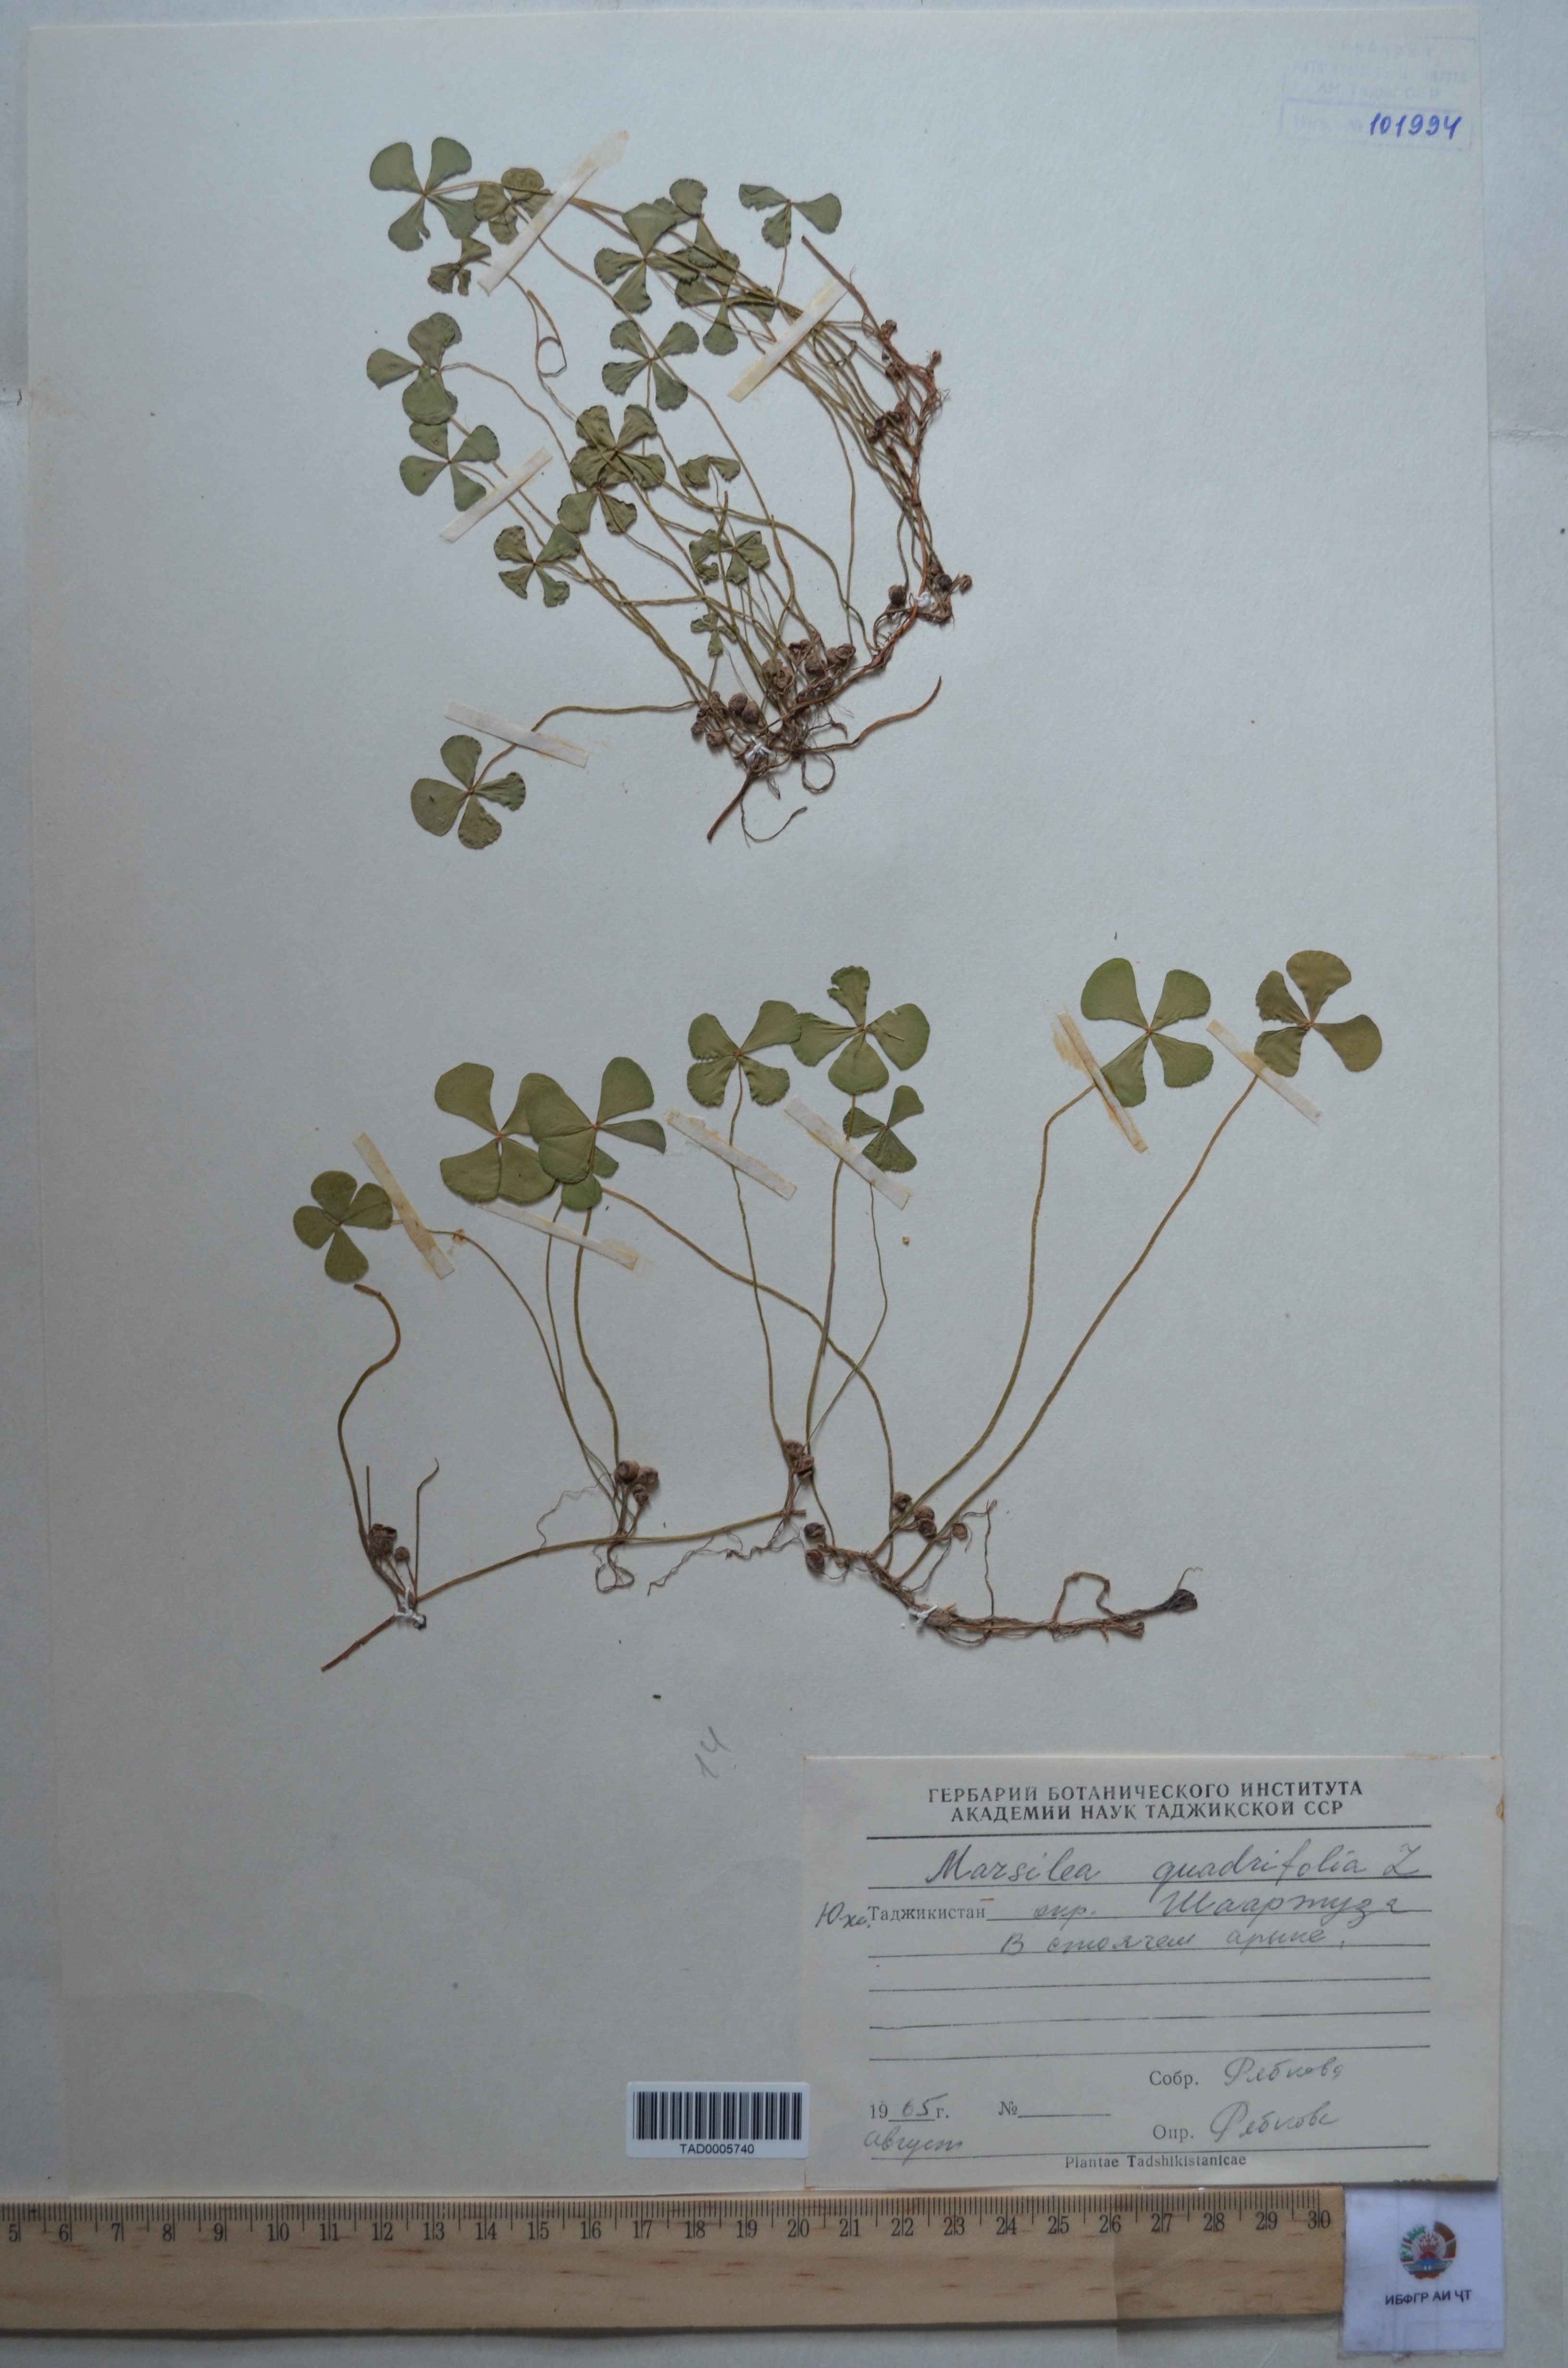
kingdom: Plantae
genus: Marsilaea
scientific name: Marsilaea
